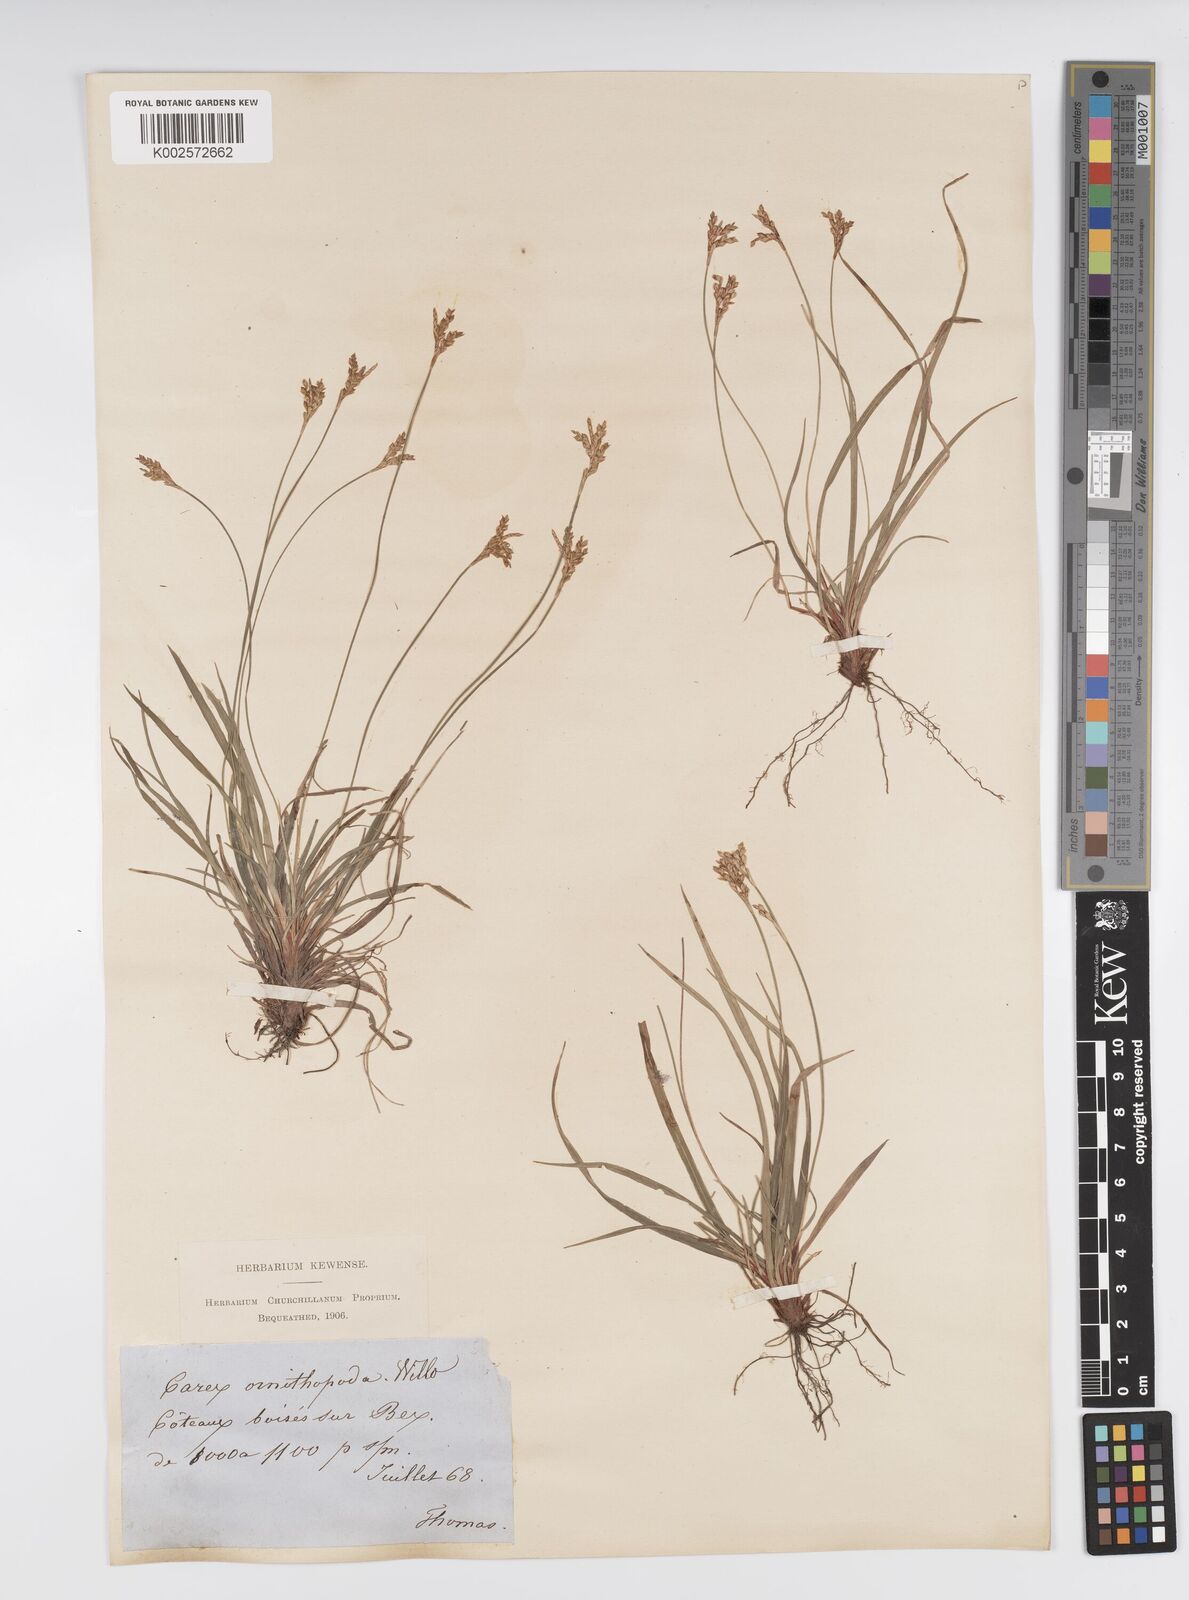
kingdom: Plantae
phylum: Tracheophyta
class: Liliopsida
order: Poales
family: Cyperaceae
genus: Carex
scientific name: Carex ornithopoda
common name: Bird's-foot sedge
